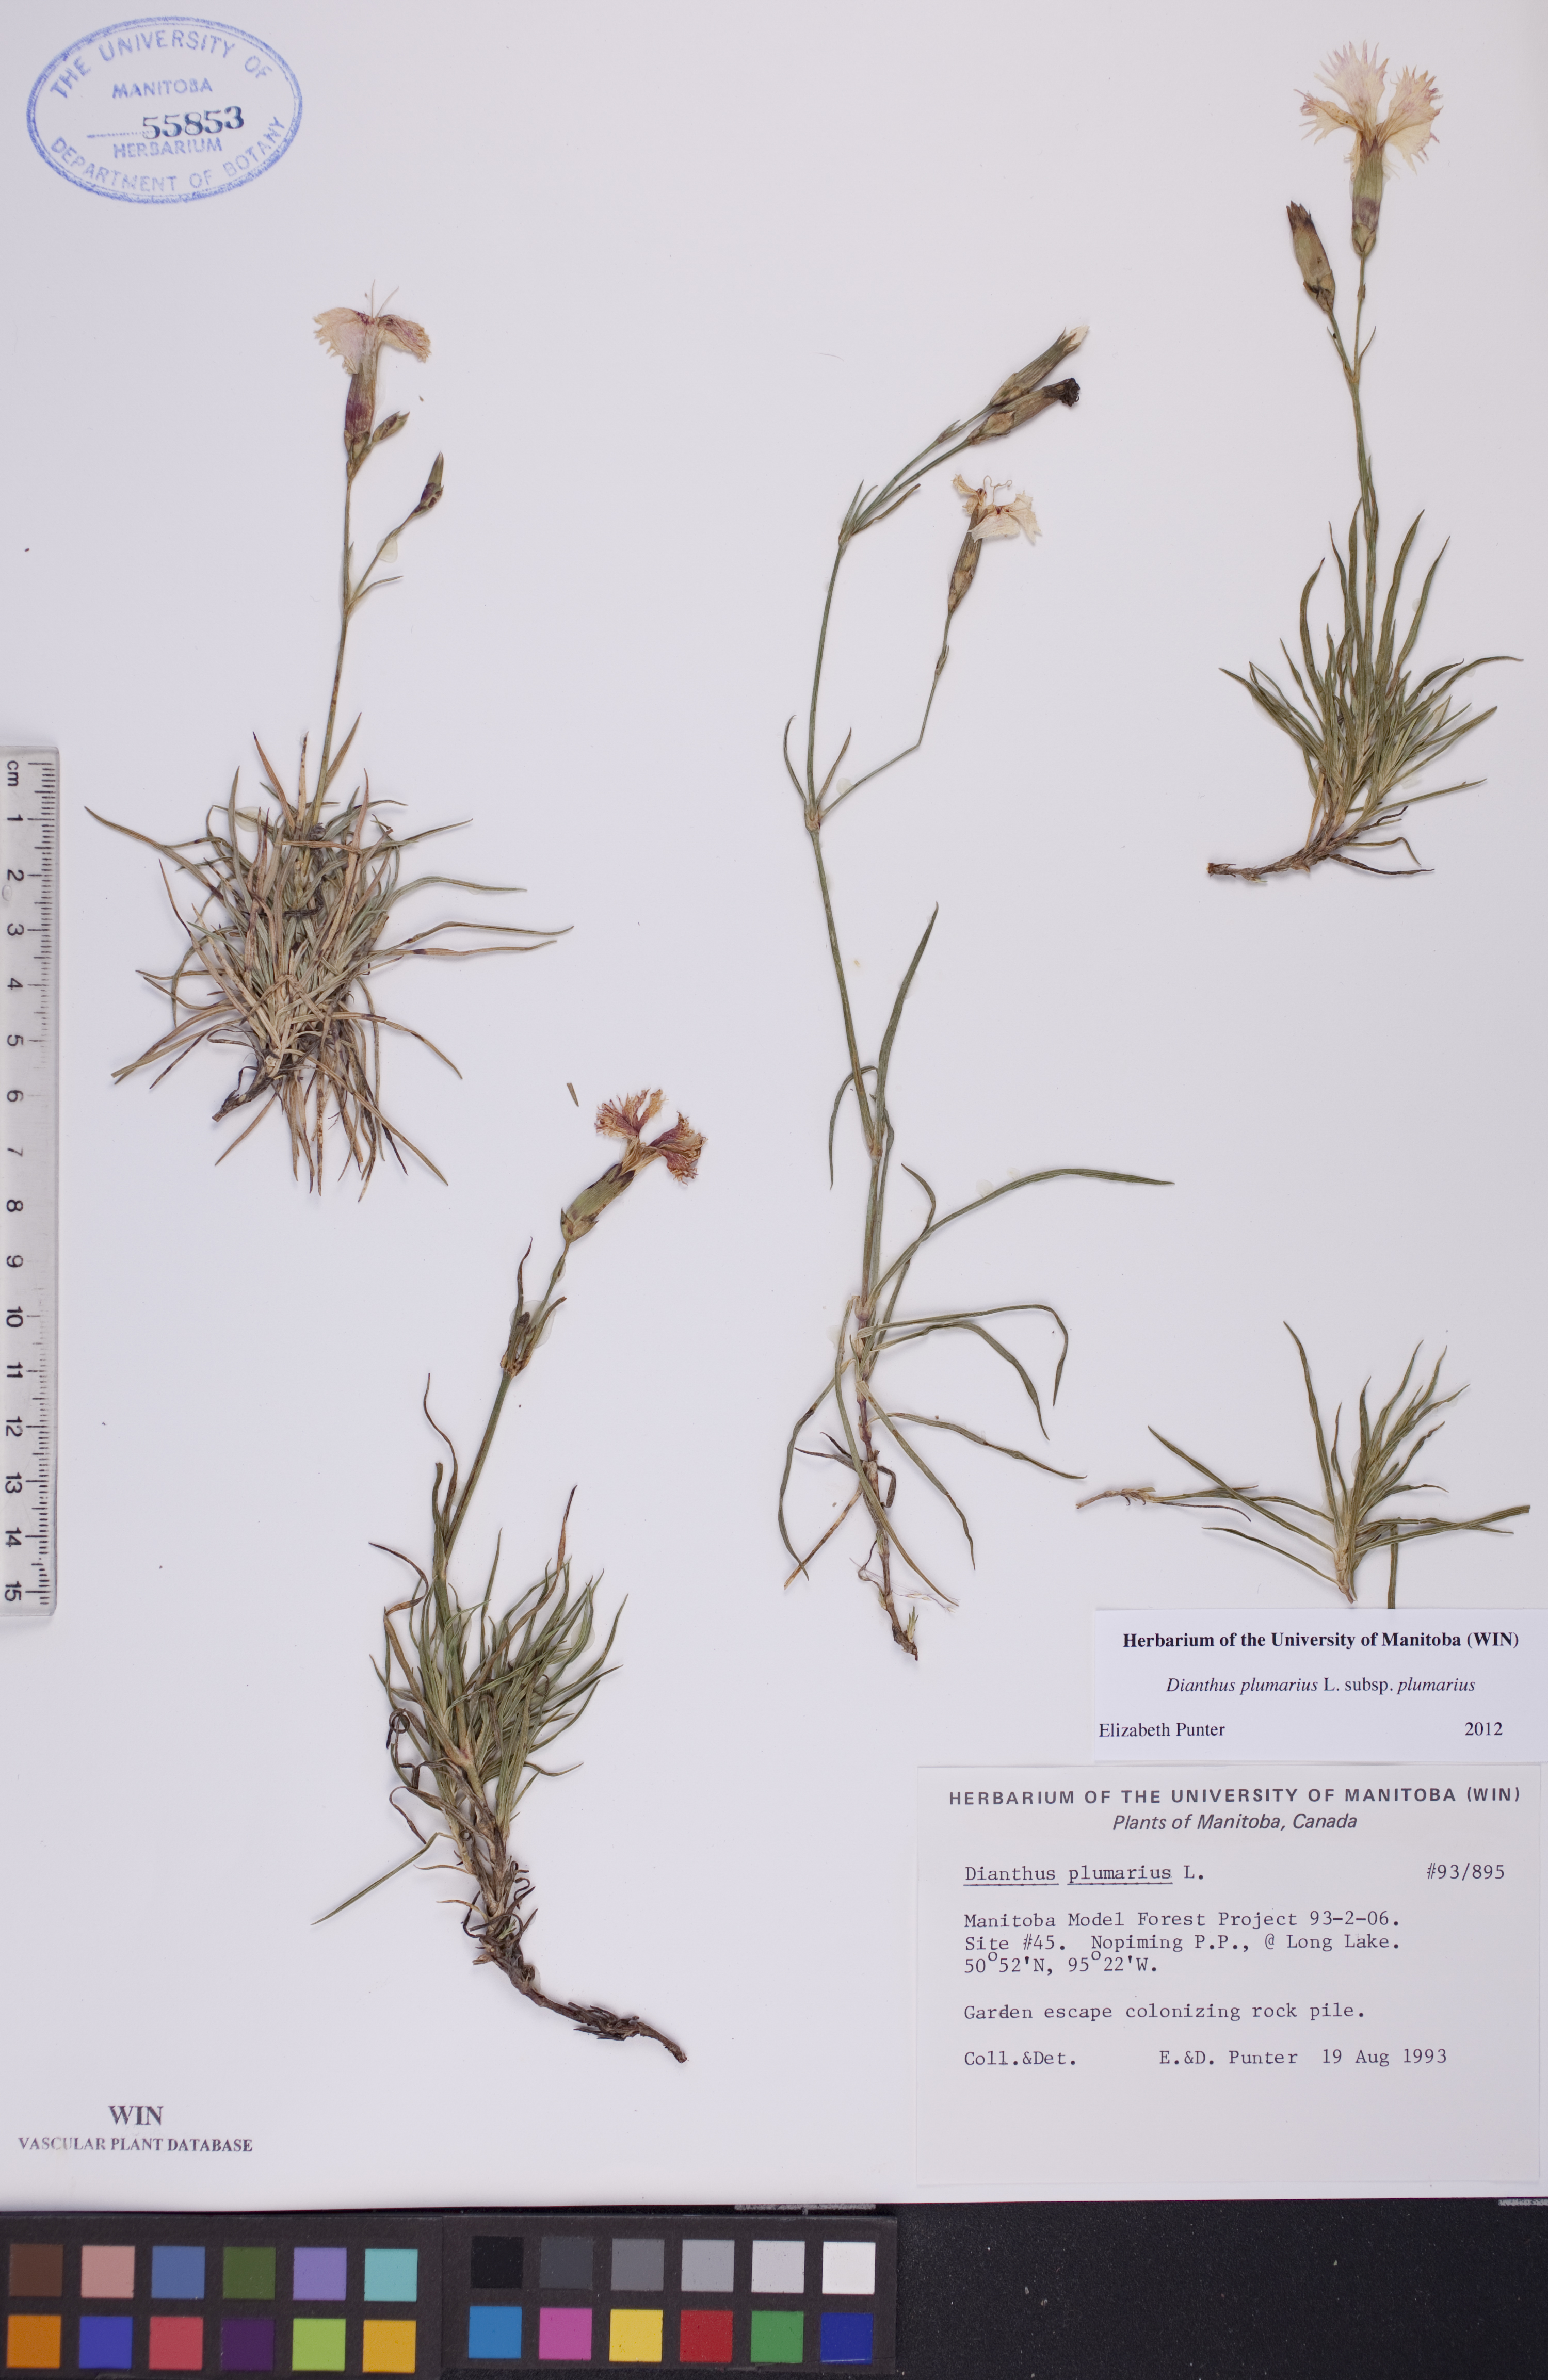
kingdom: Plantae
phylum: Tracheophyta
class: Magnoliopsida
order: Caryophyllales
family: Caryophyllaceae
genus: Dianthus
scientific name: Dianthus plumarius
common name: Pink
